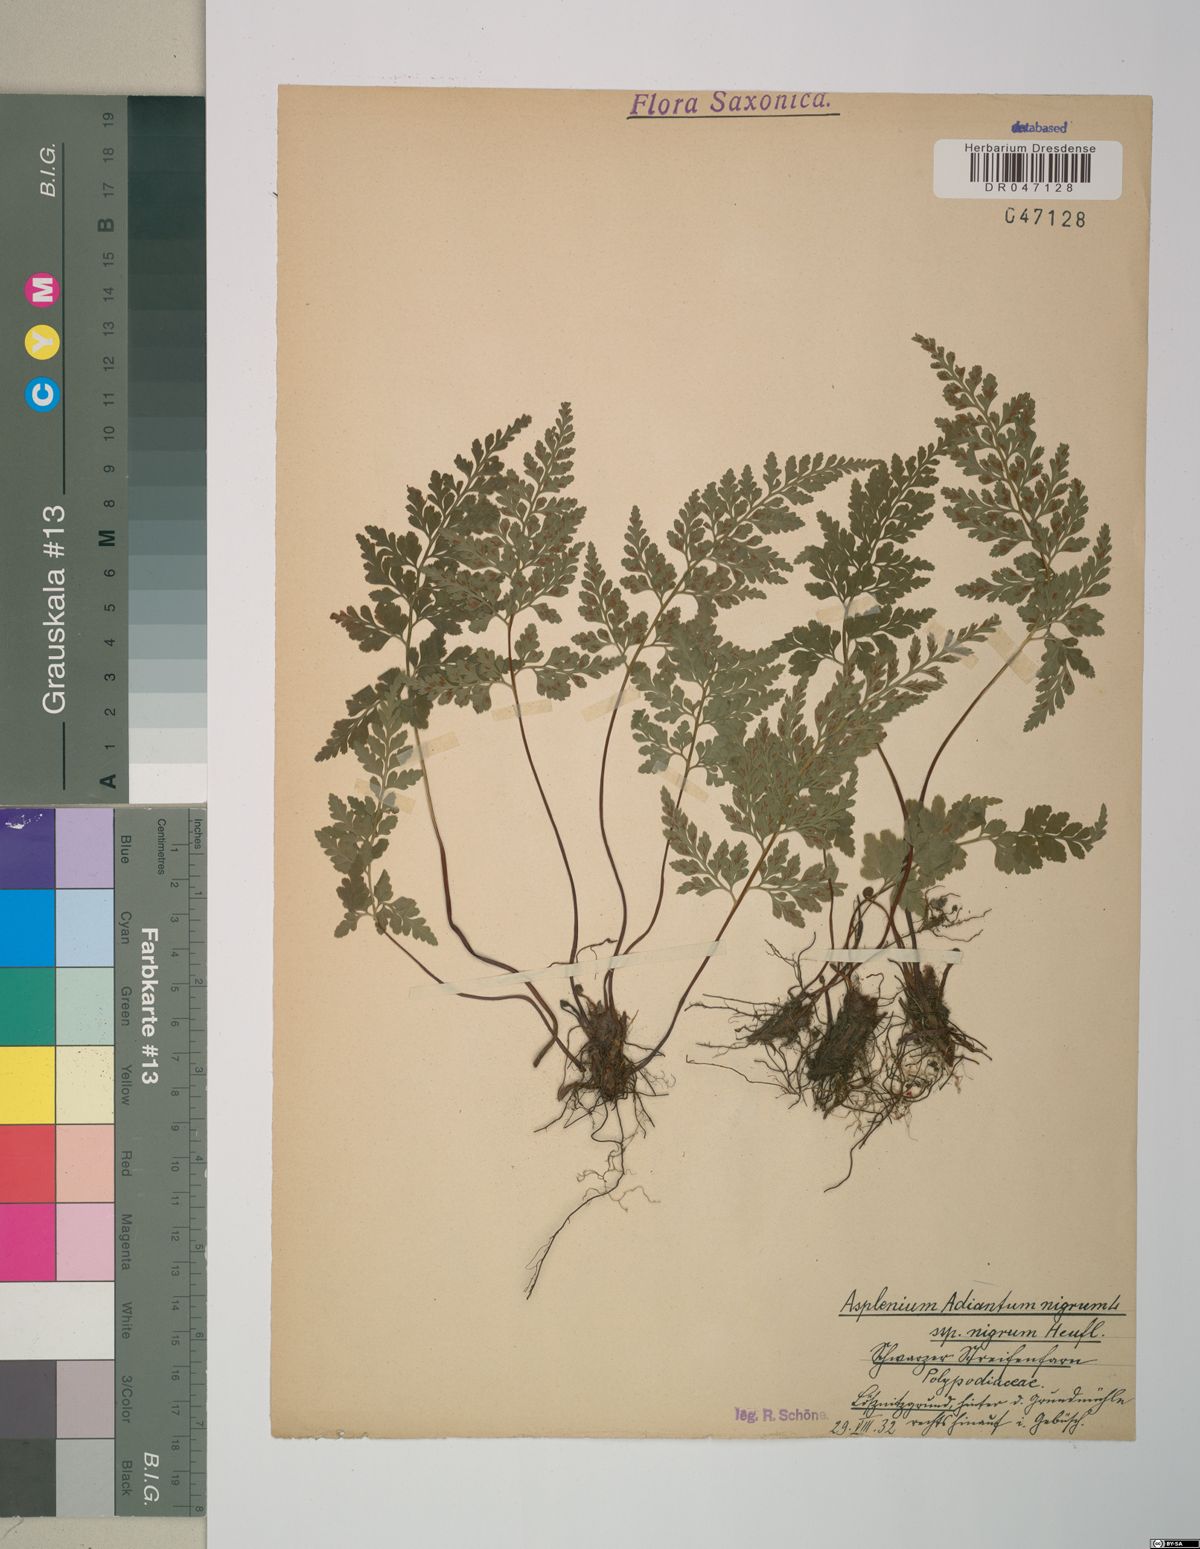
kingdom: Plantae
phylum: Tracheophyta
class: Polypodiopsida
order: Polypodiales
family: Aspleniaceae
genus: Asplenium
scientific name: Asplenium adiantum-nigrum
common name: Black spleenwort
